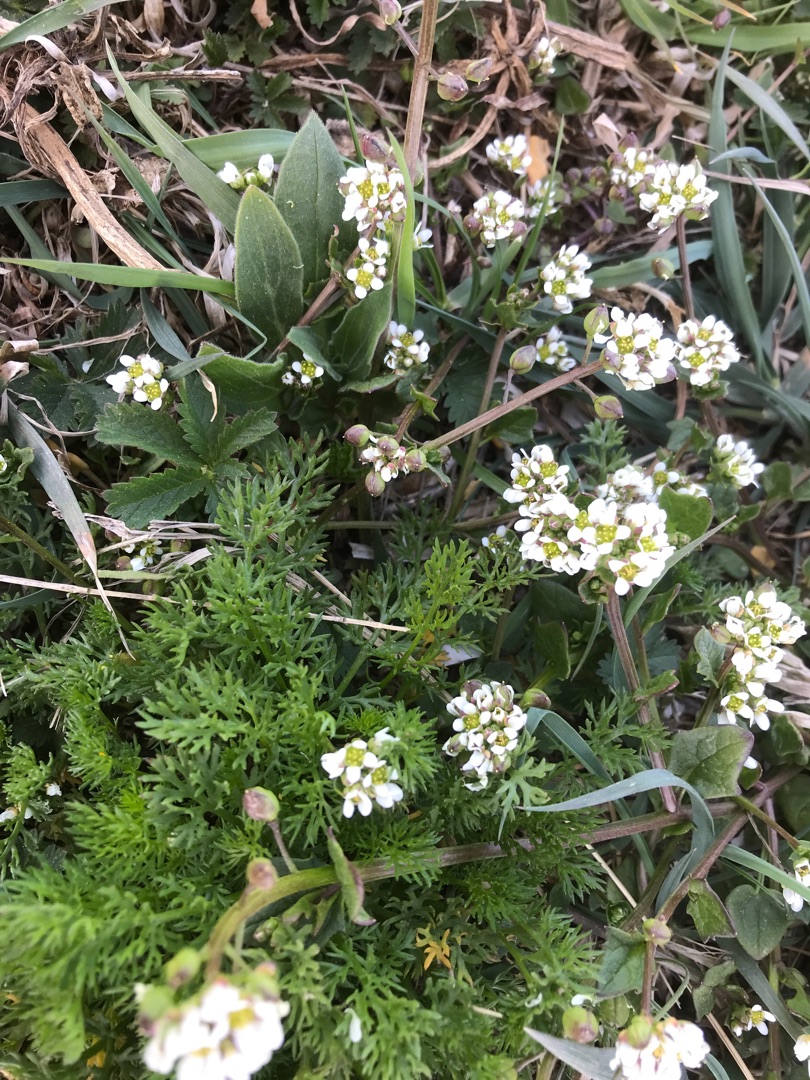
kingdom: Plantae
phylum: Tracheophyta
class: Magnoliopsida
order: Brassicales
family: Brassicaceae
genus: Cochlearia
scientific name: Cochlearia danica
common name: Dansk kokleare
